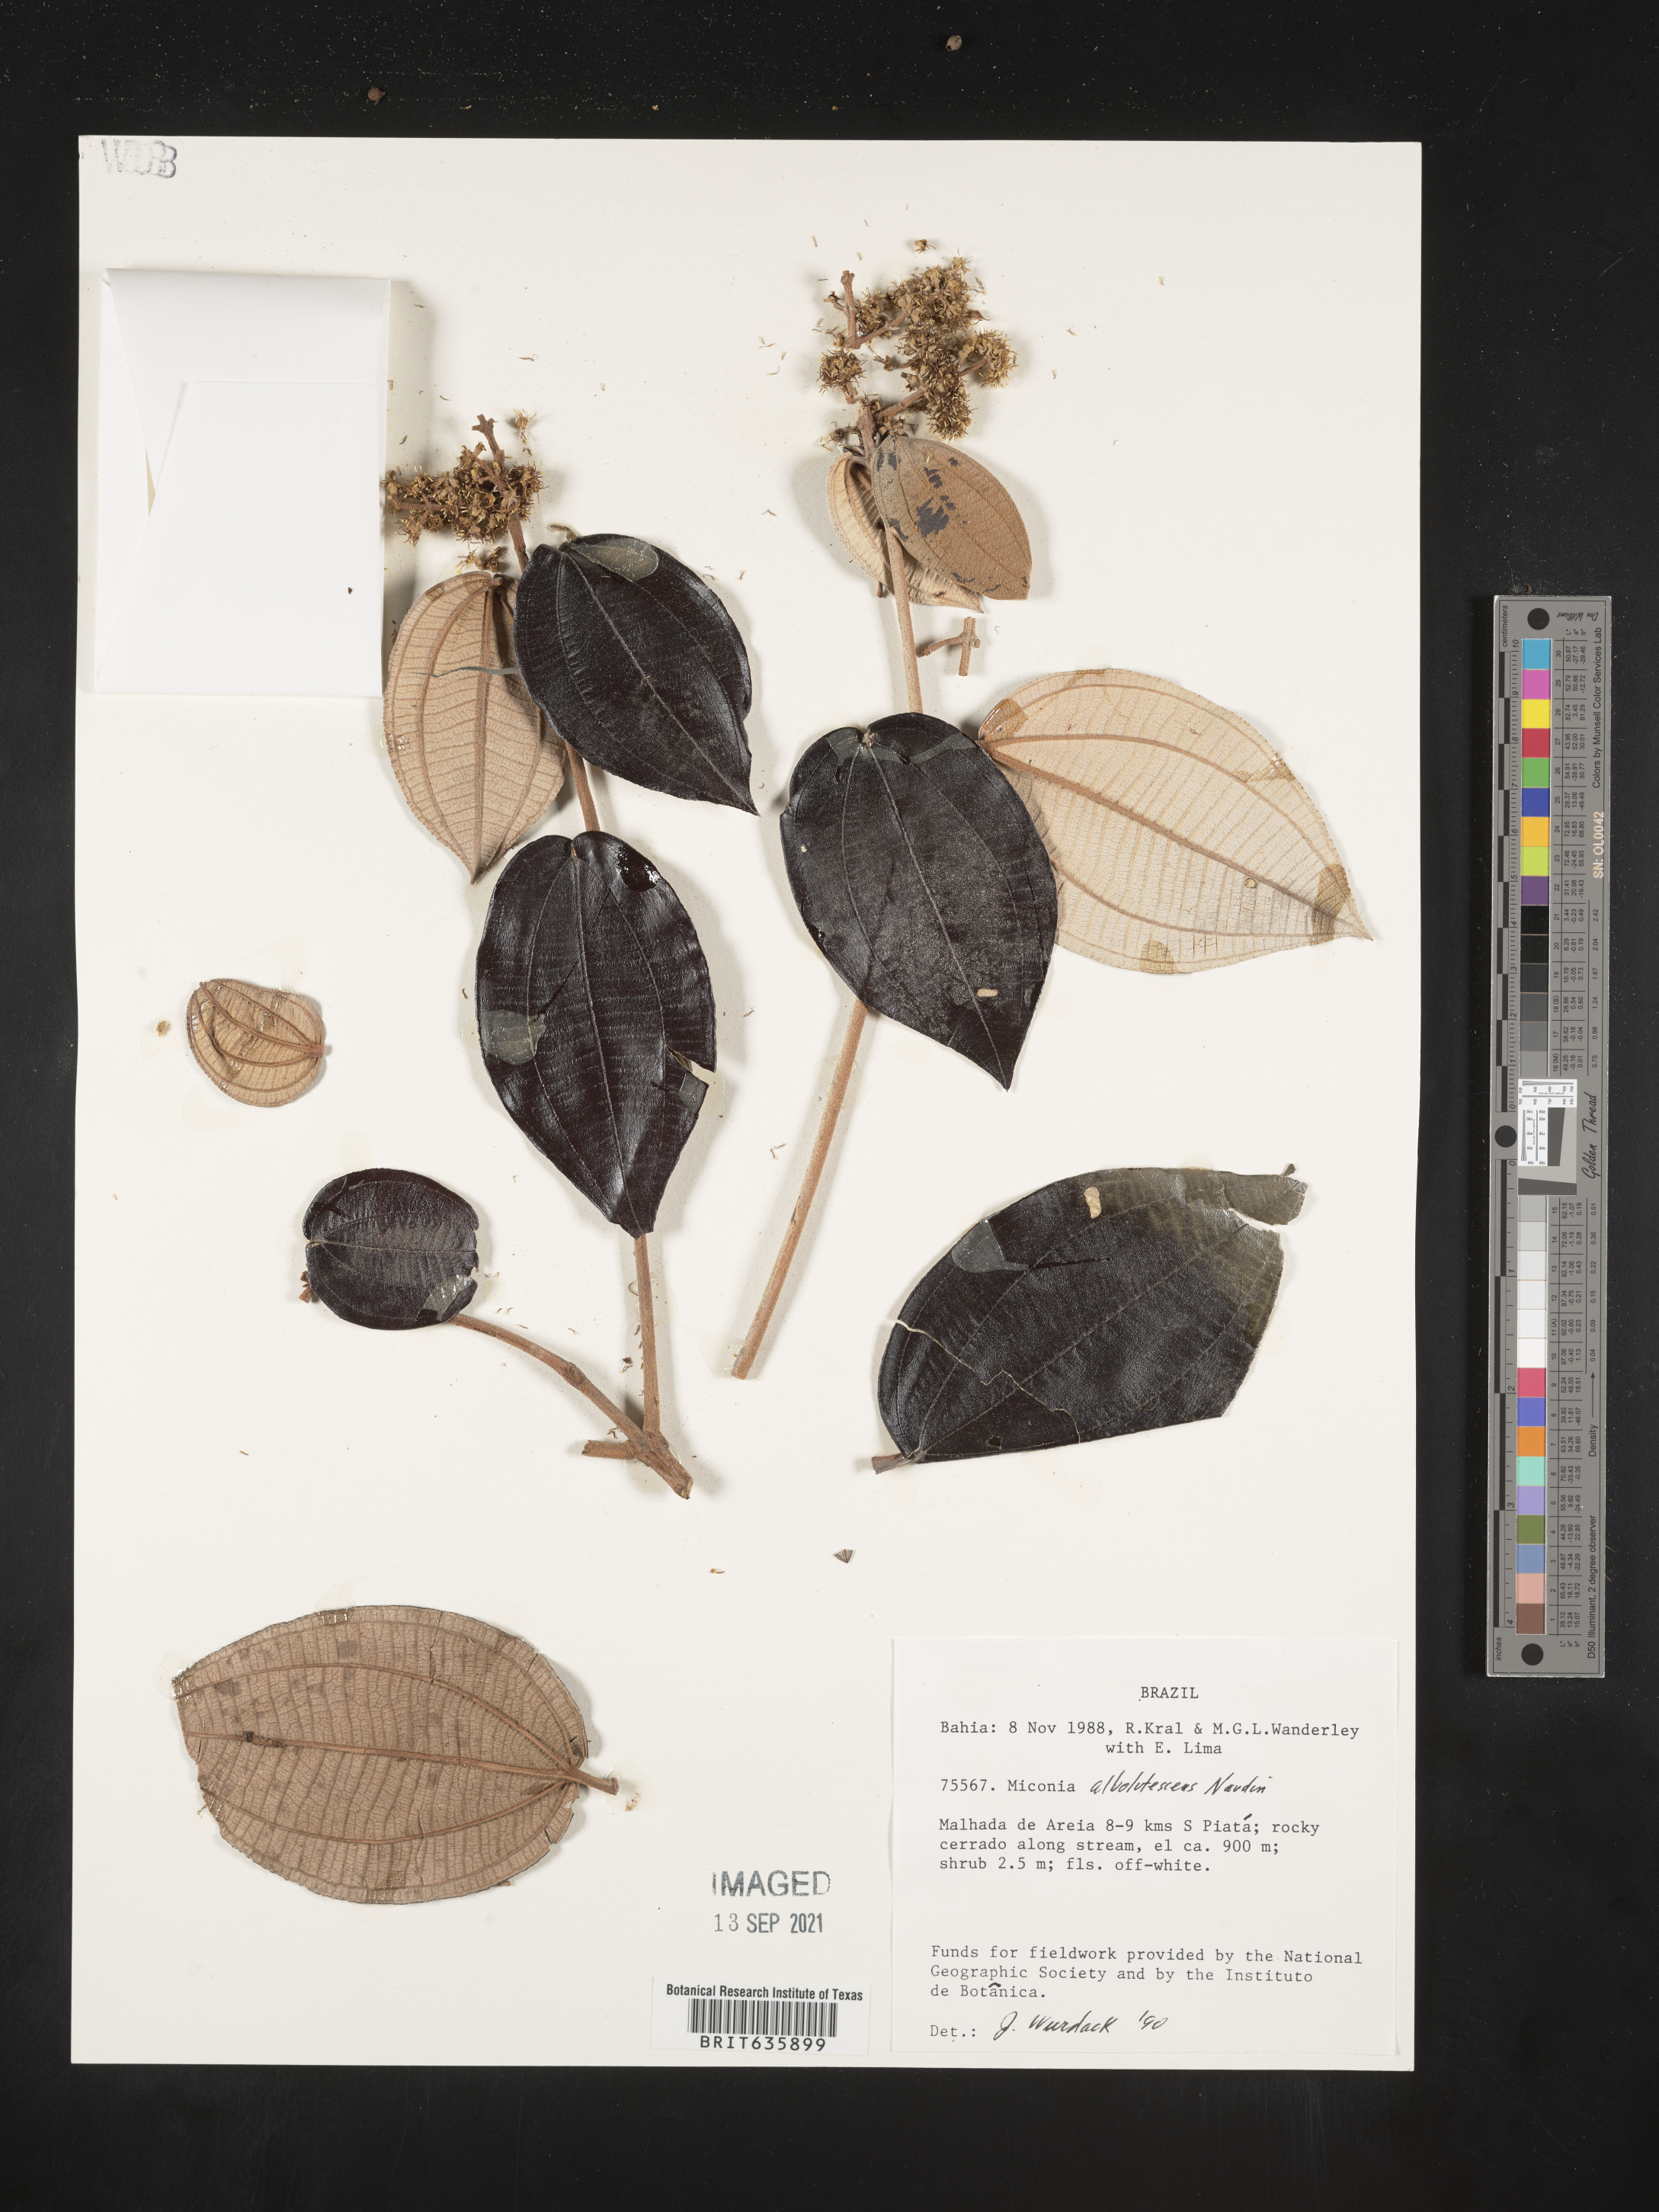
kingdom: Plantae
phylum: Tracheophyta
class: Magnoliopsida
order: Myrtales
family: Melastomataceae
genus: Miconia
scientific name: Miconia
